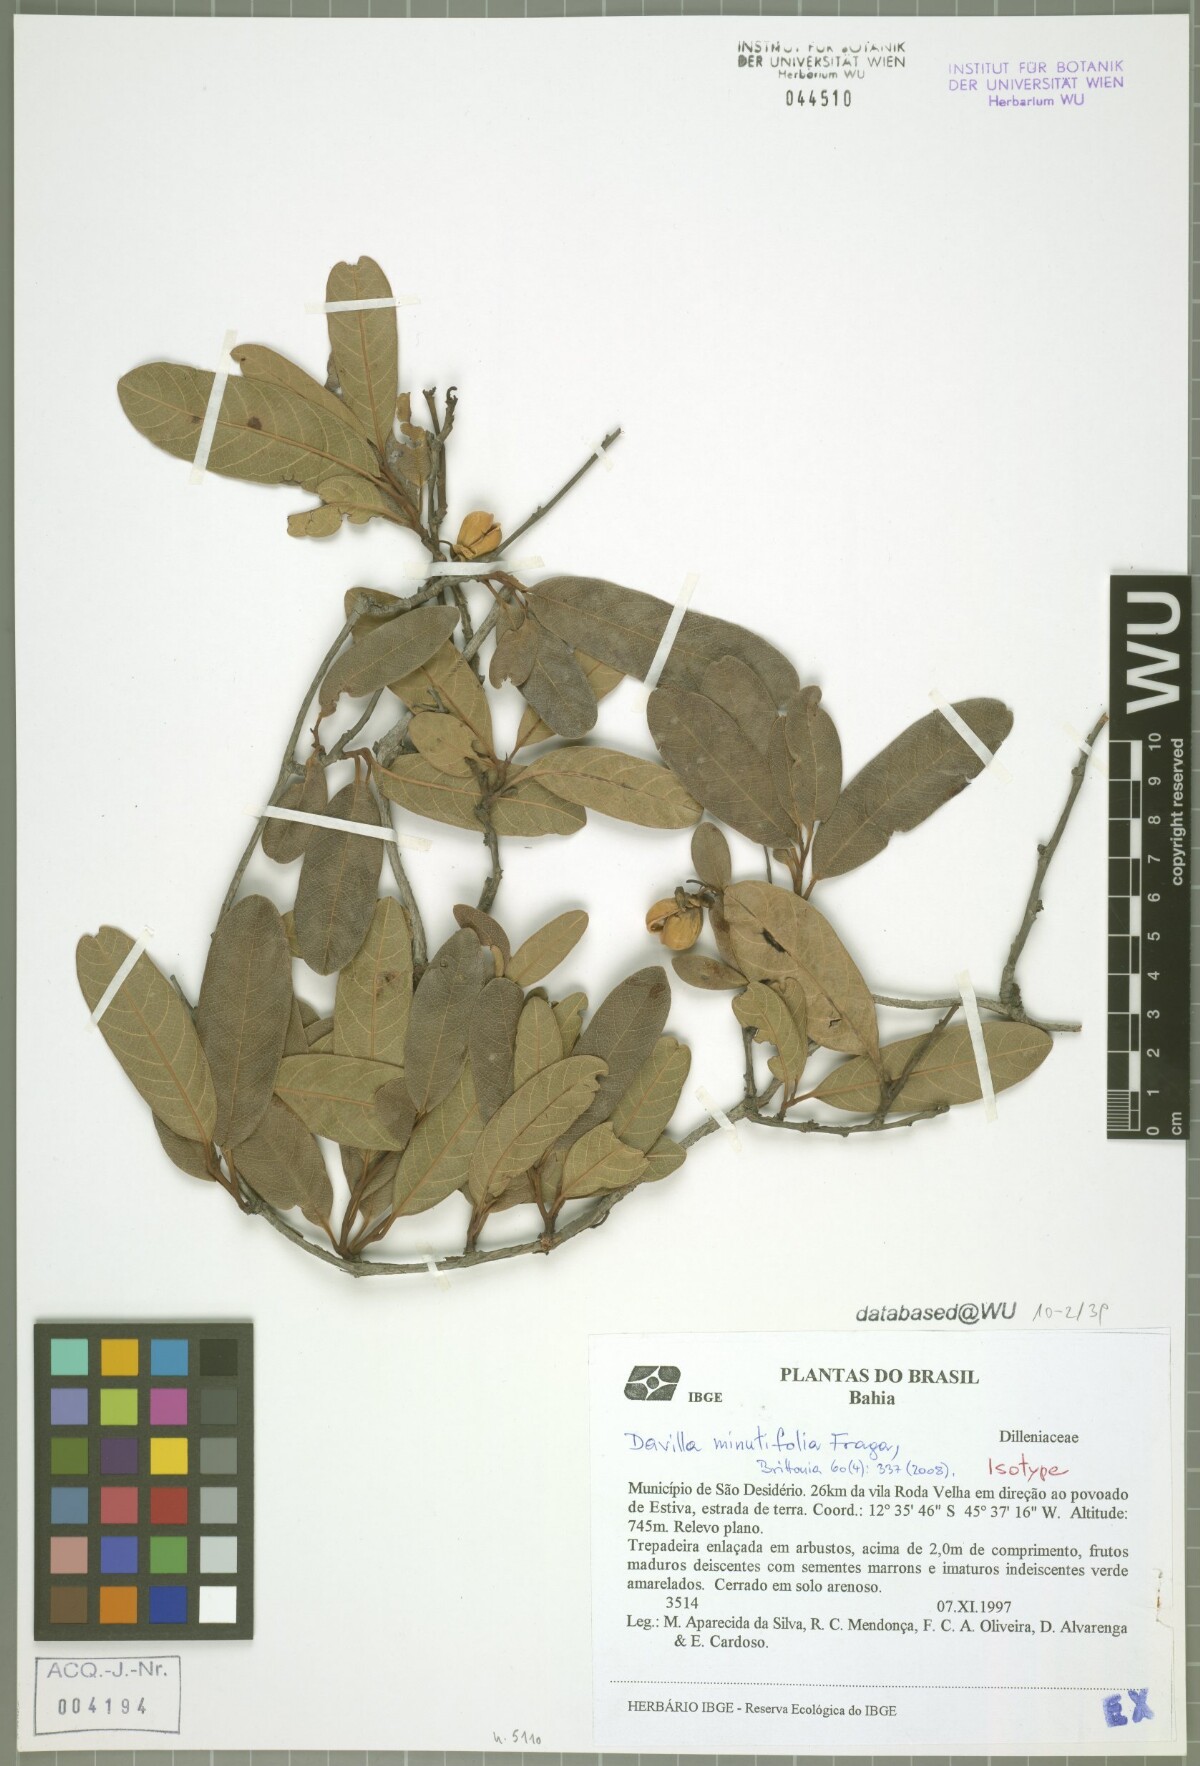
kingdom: Plantae
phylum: Tracheophyta
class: Magnoliopsida
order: Dilleniales
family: Dilleniaceae
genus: Davilla
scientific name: Davilla minutifolia
